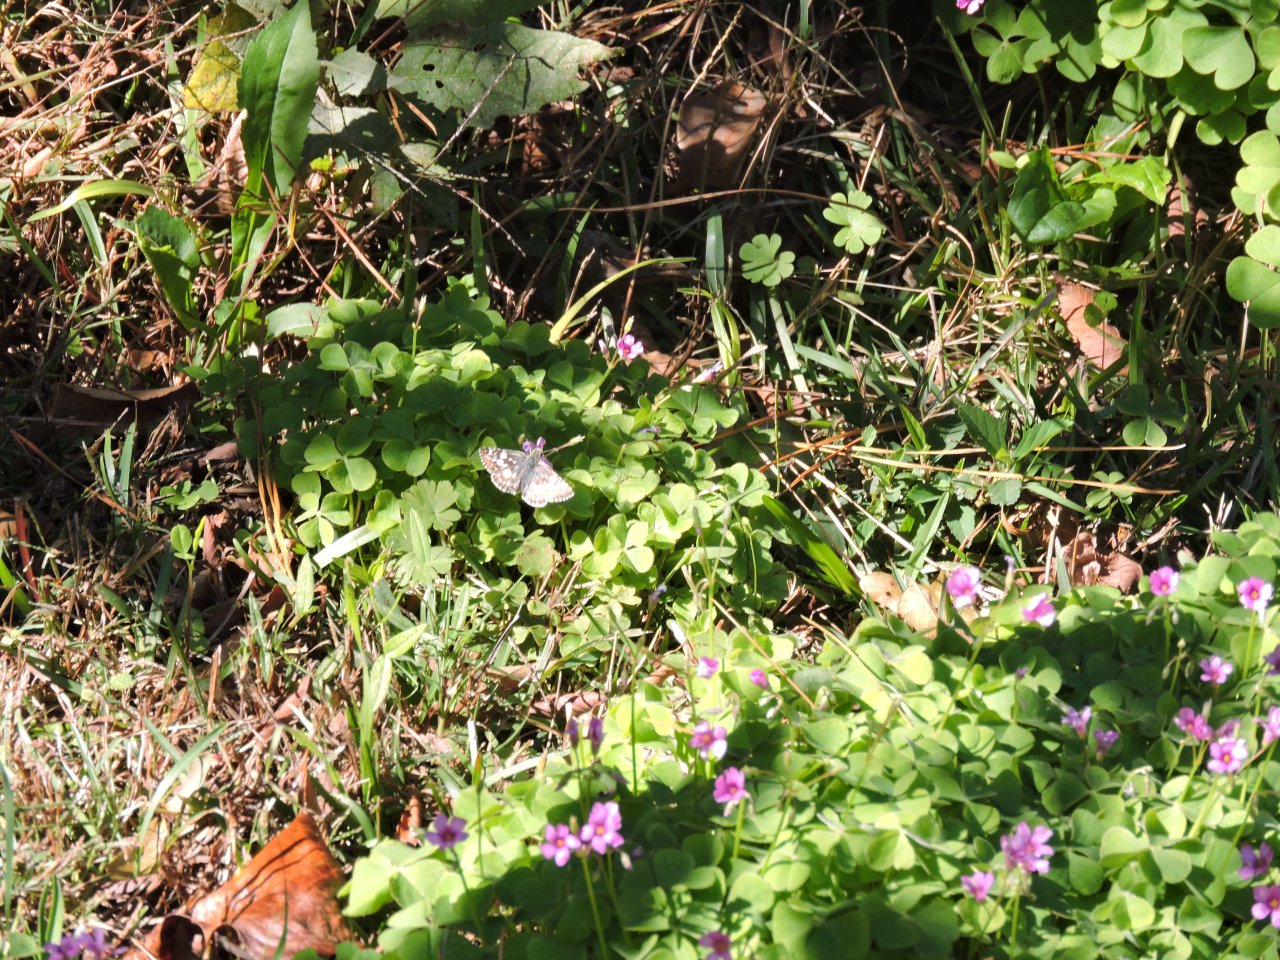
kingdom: Animalia
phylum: Arthropoda
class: Insecta
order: Lepidoptera
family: Hesperiidae
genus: Pyrgus
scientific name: Pyrgus
